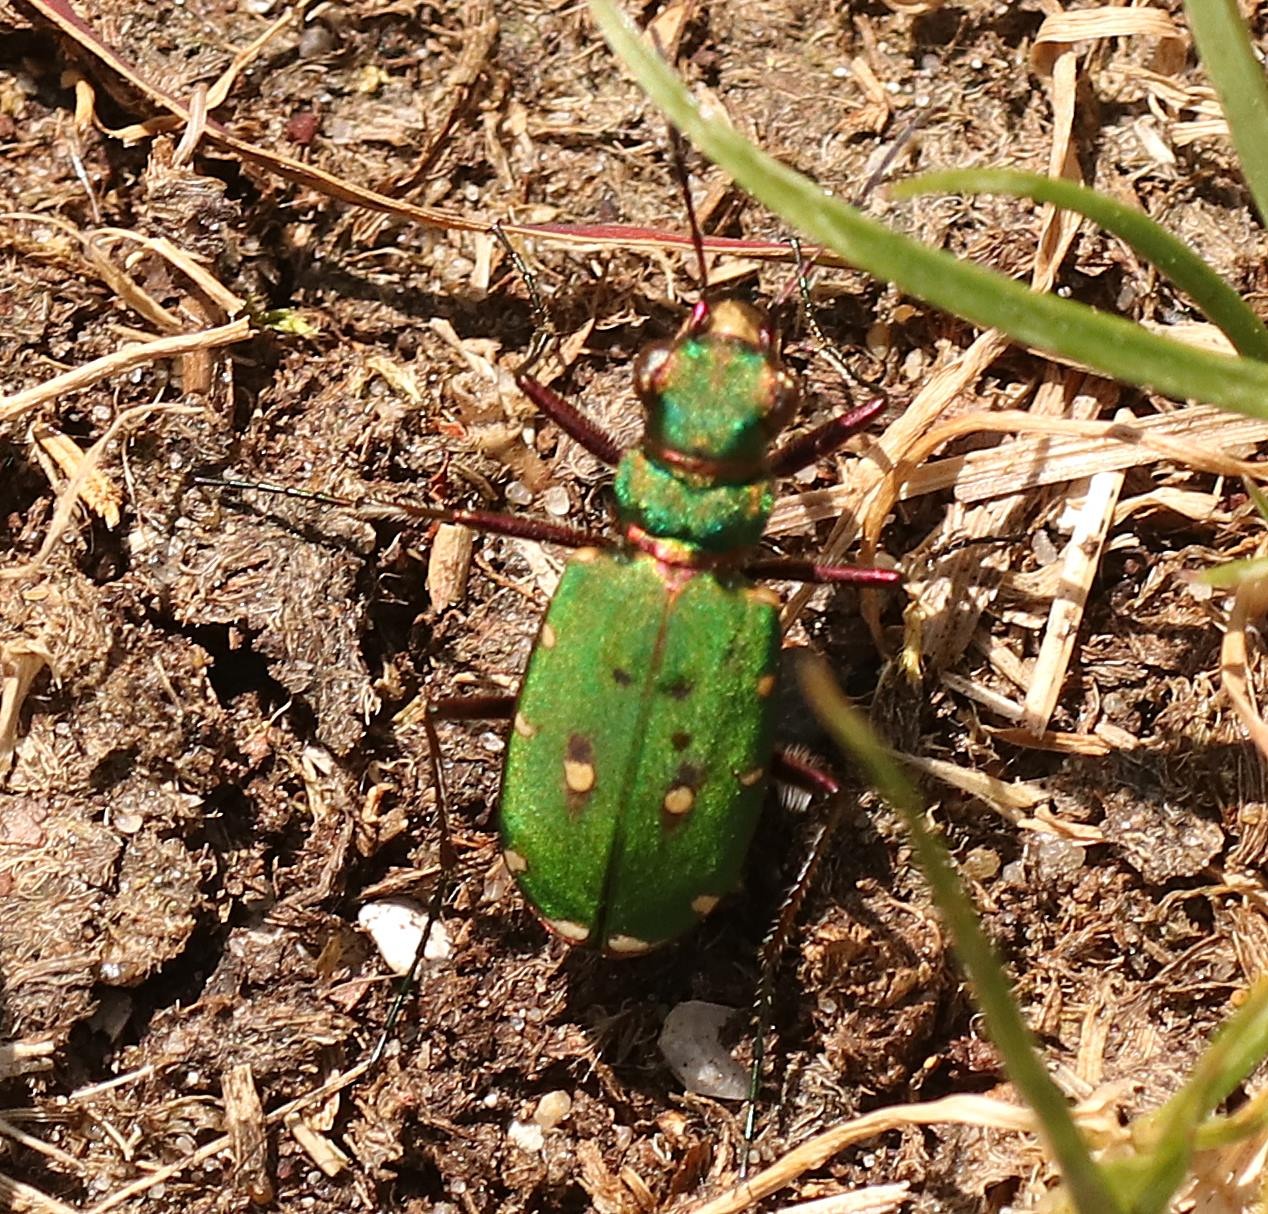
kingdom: Animalia
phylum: Arthropoda
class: Insecta
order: Coleoptera
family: Carabidae
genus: Cicindela
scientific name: Cicindela campestris
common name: Grøn sandspringer
